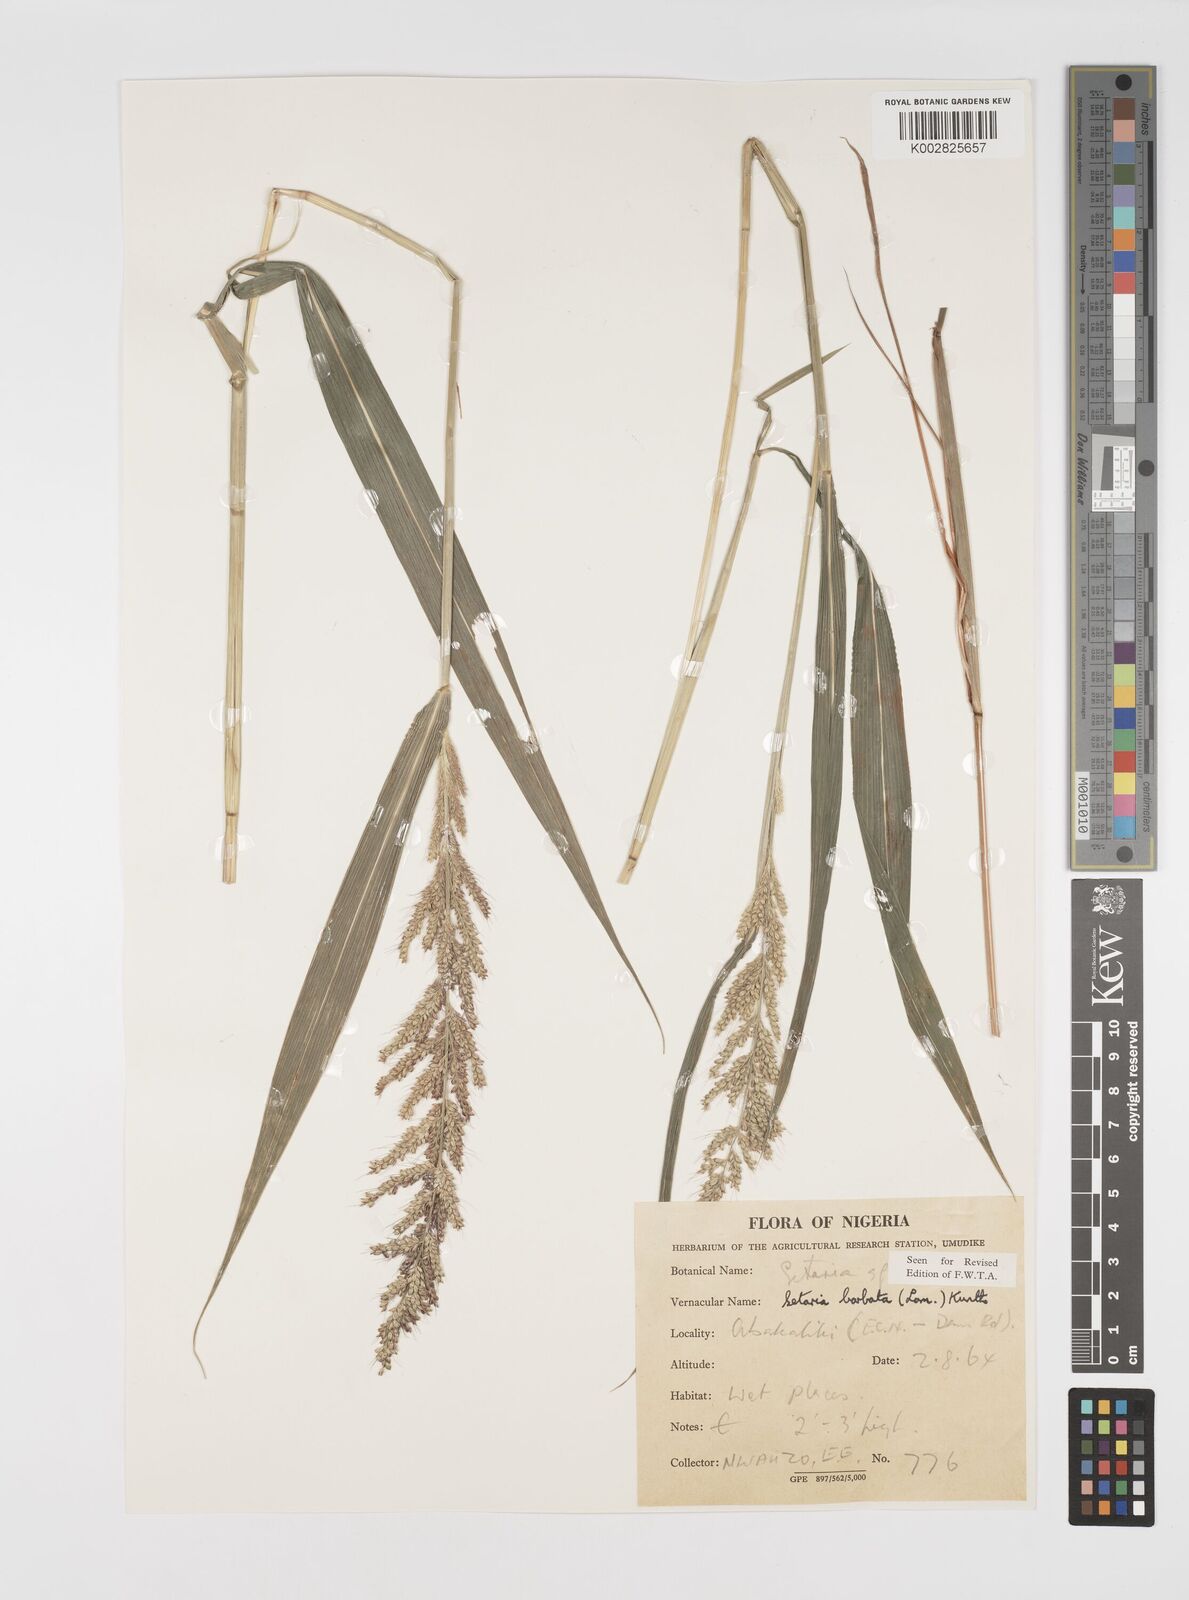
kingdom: Plantae
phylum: Tracheophyta
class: Liliopsida
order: Poales
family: Poaceae
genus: Setaria
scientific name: Setaria barbata
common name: East indian bristlegrass
